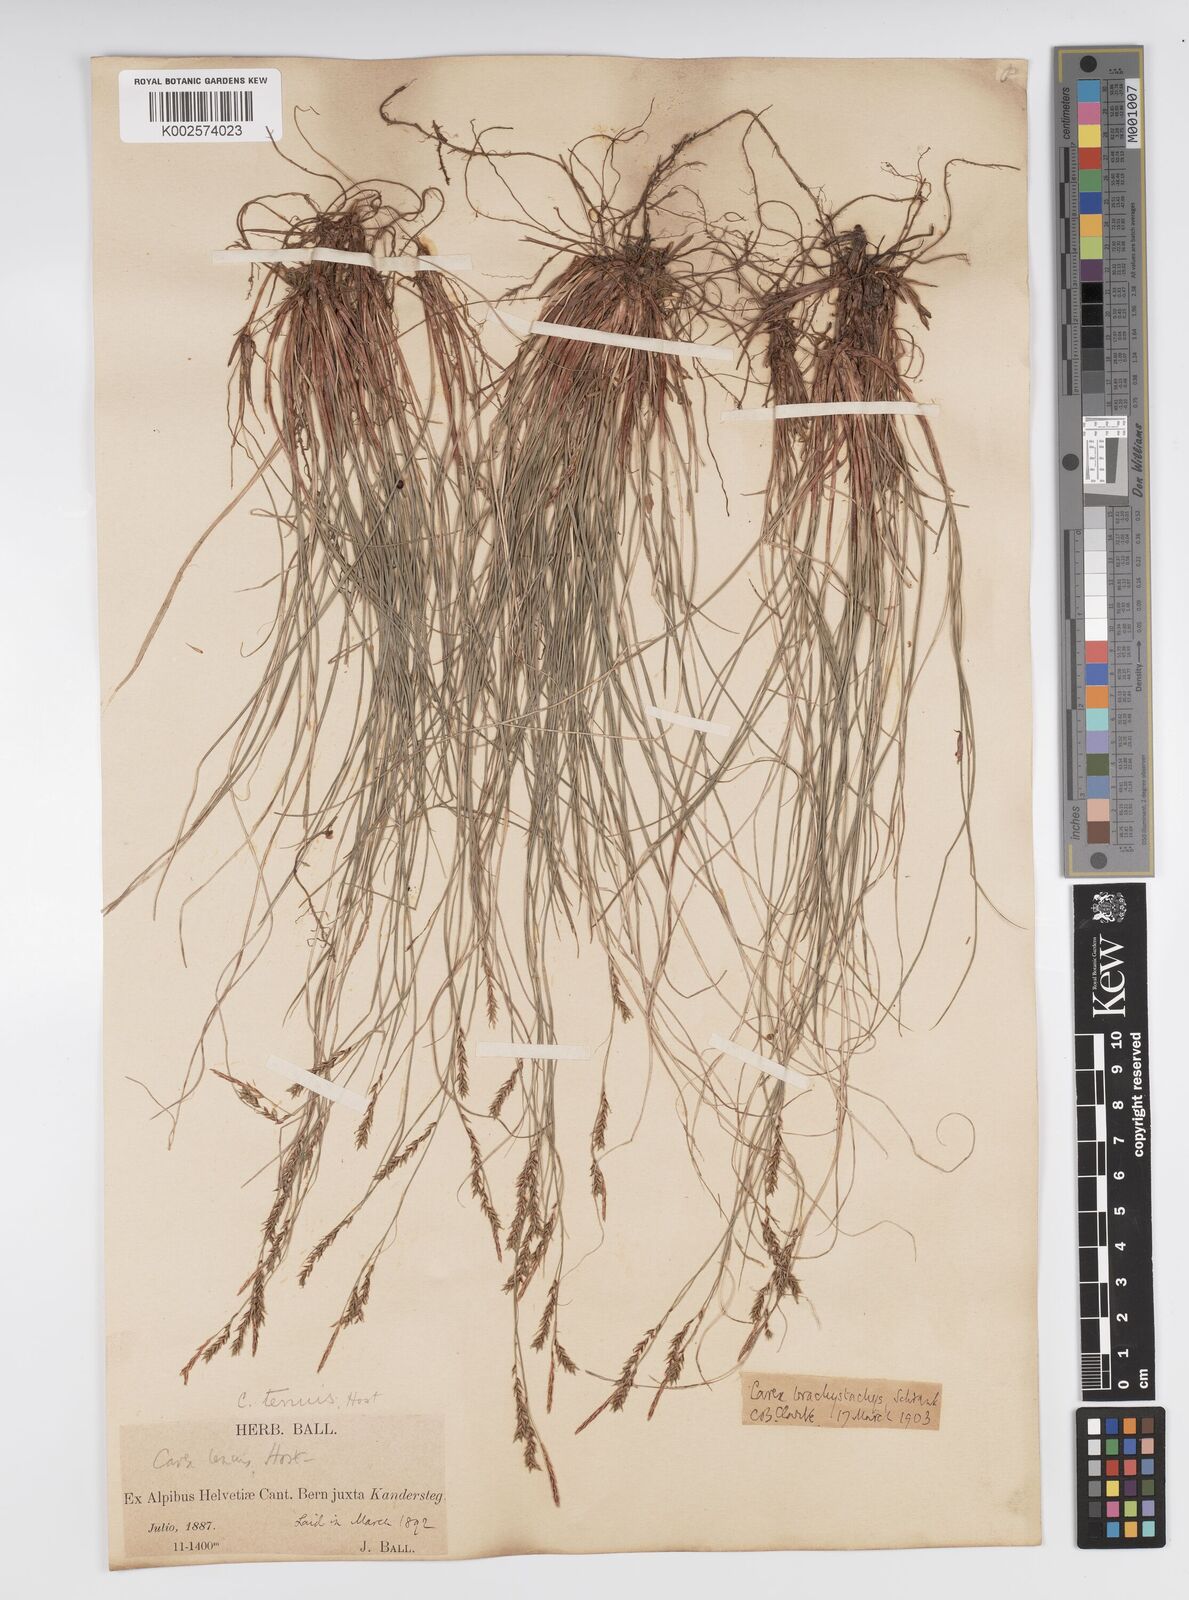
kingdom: Plantae
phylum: Tracheophyta
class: Liliopsida
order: Poales
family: Cyperaceae
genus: Carex
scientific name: Carex brachystachys
